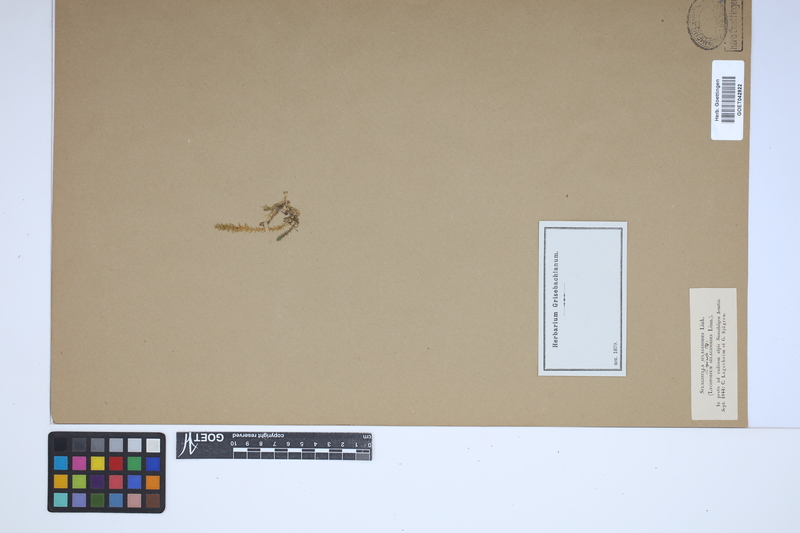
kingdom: Plantae
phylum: Tracheophyta
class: Lycopodiopsida
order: Selaginellales
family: Selaginellaceae
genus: Selaginella
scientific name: Selaginella selaginoides
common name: Prickly mountain-moss
